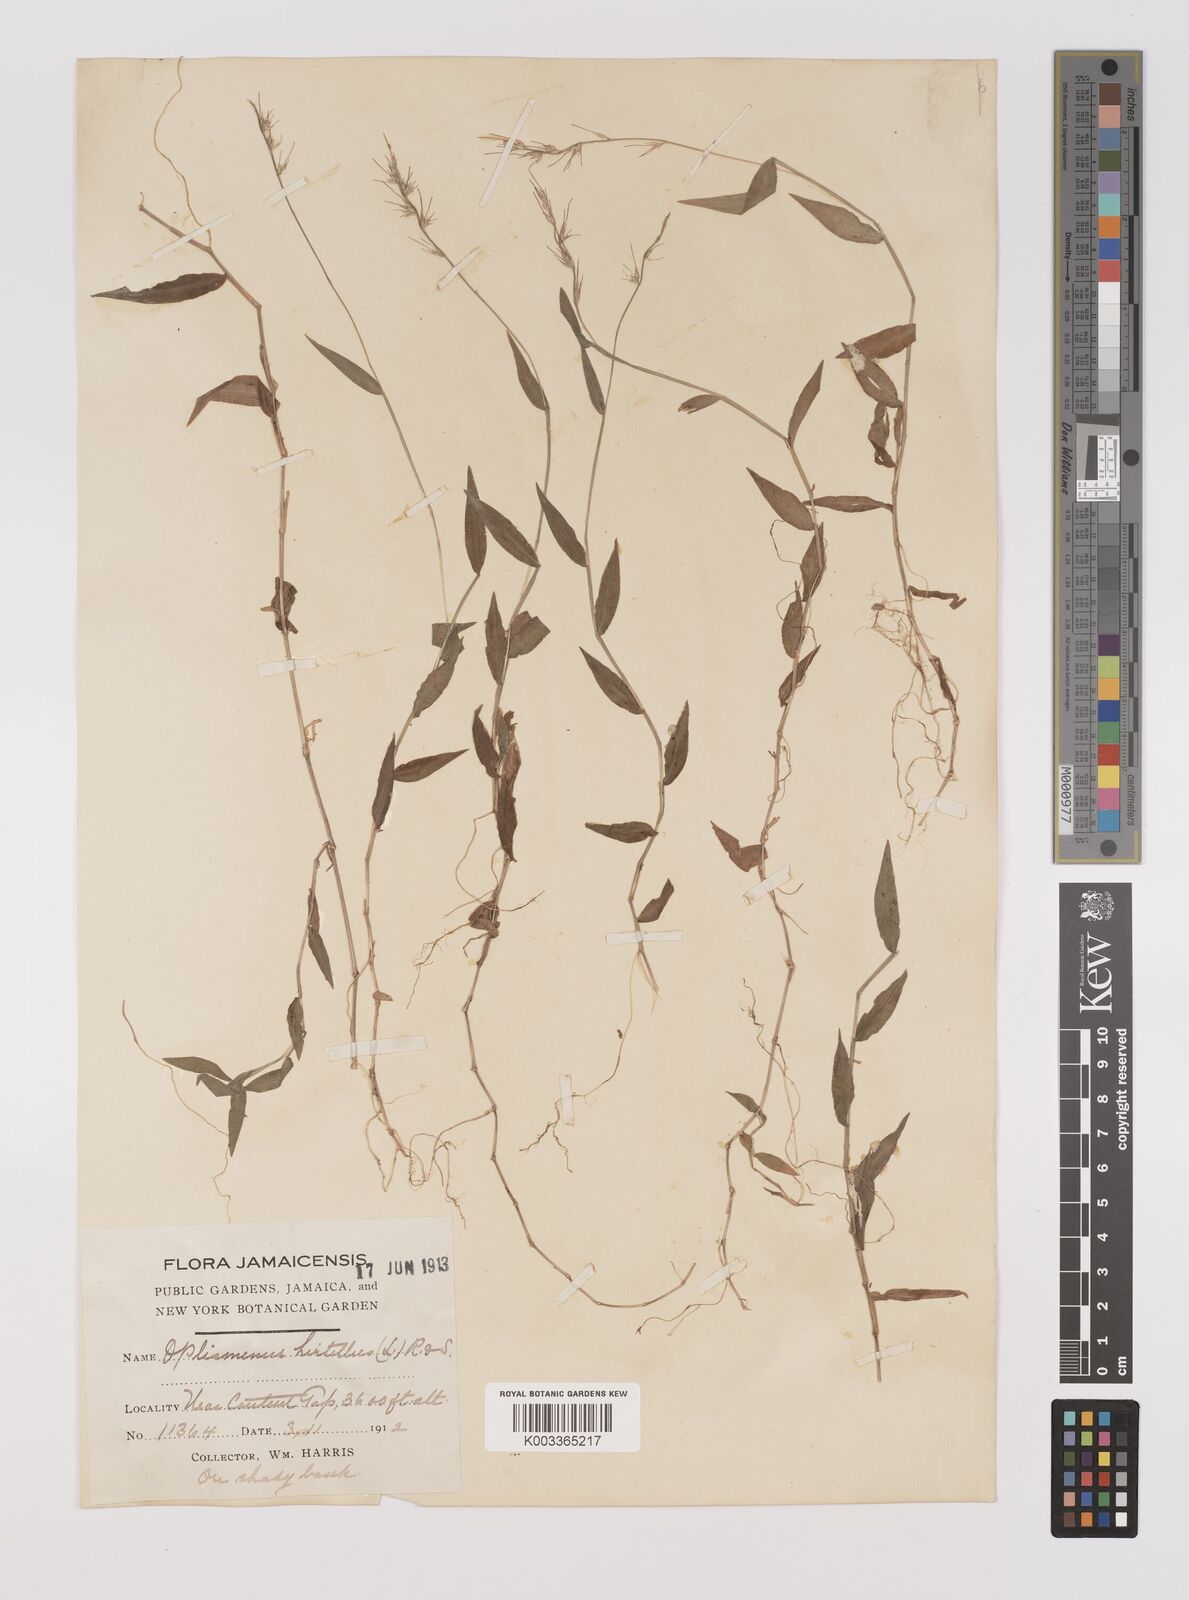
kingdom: Plantae
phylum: Tracheophyta
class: Liliopsida
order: Poales
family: Poaceae
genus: Oplismenus
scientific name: Oplismenus hirtellus
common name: Basketgrass
